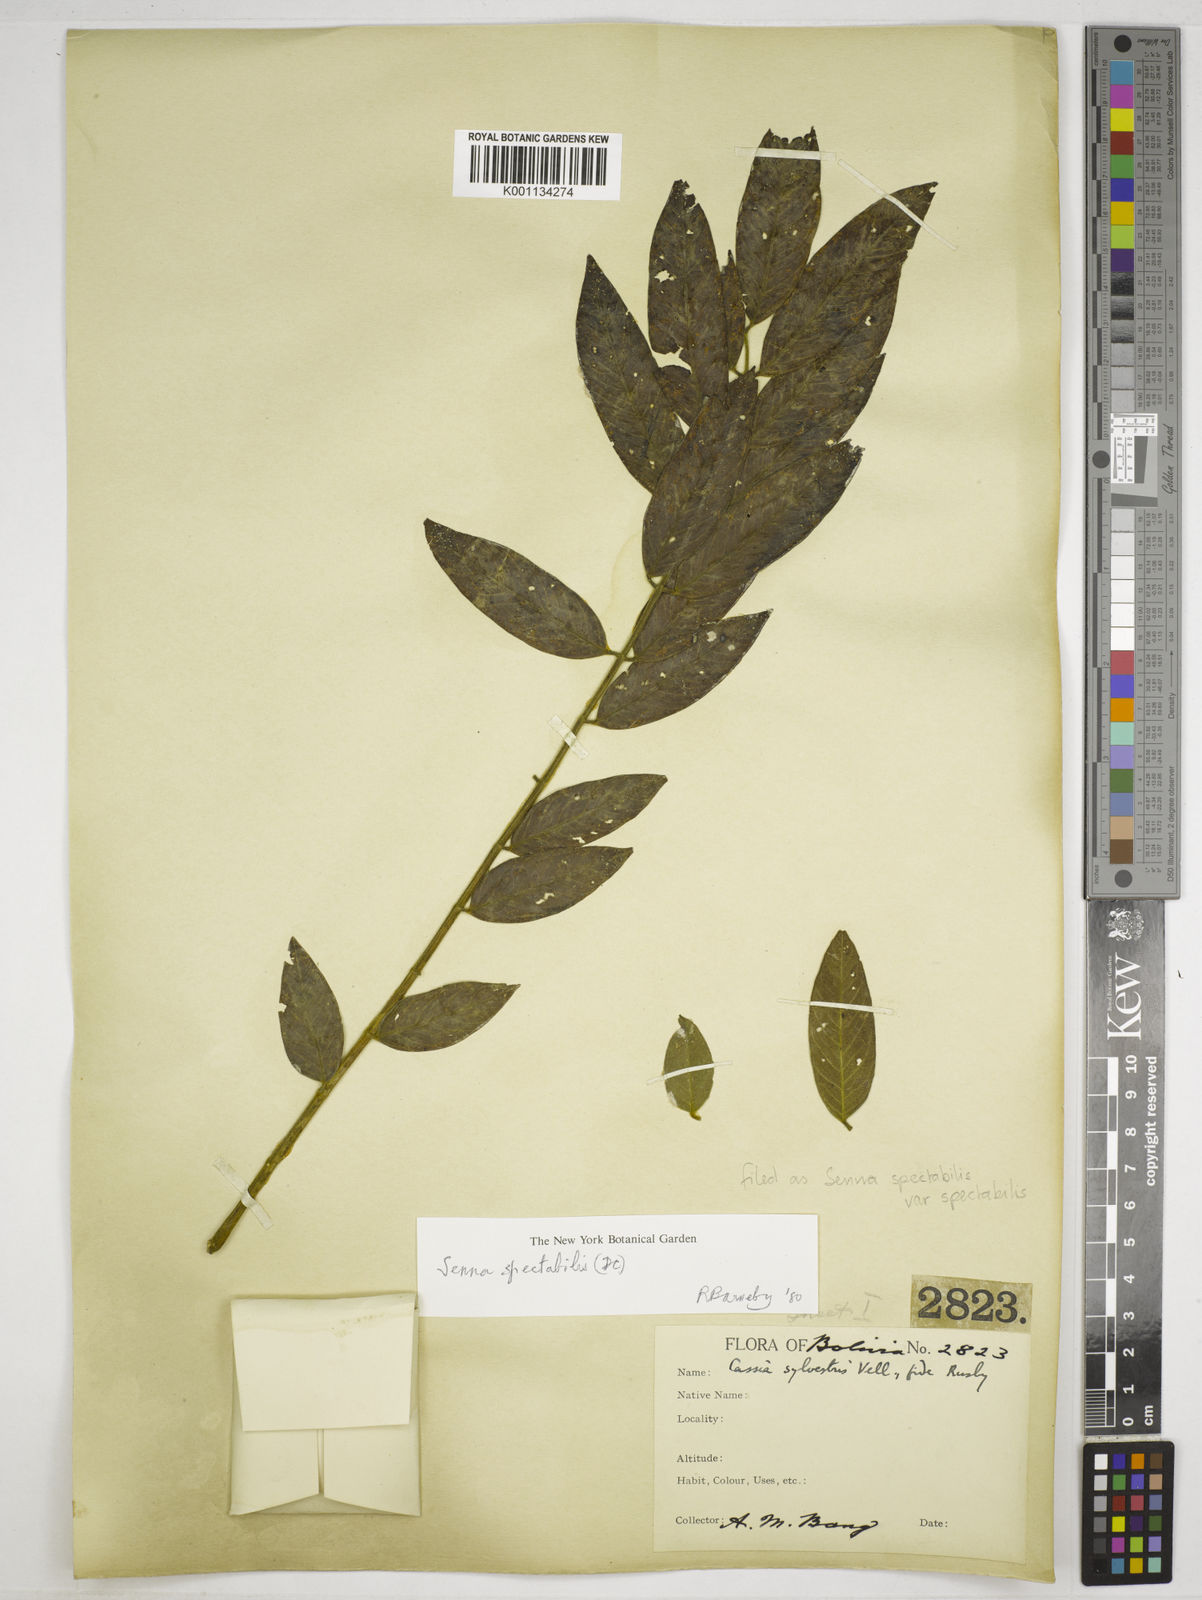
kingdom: Plantae
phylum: Tracheophyta
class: Magnoliopsida
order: Fabales
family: Fabaceae
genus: Senna
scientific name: Senna spectabilis
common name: Casia amarilla
